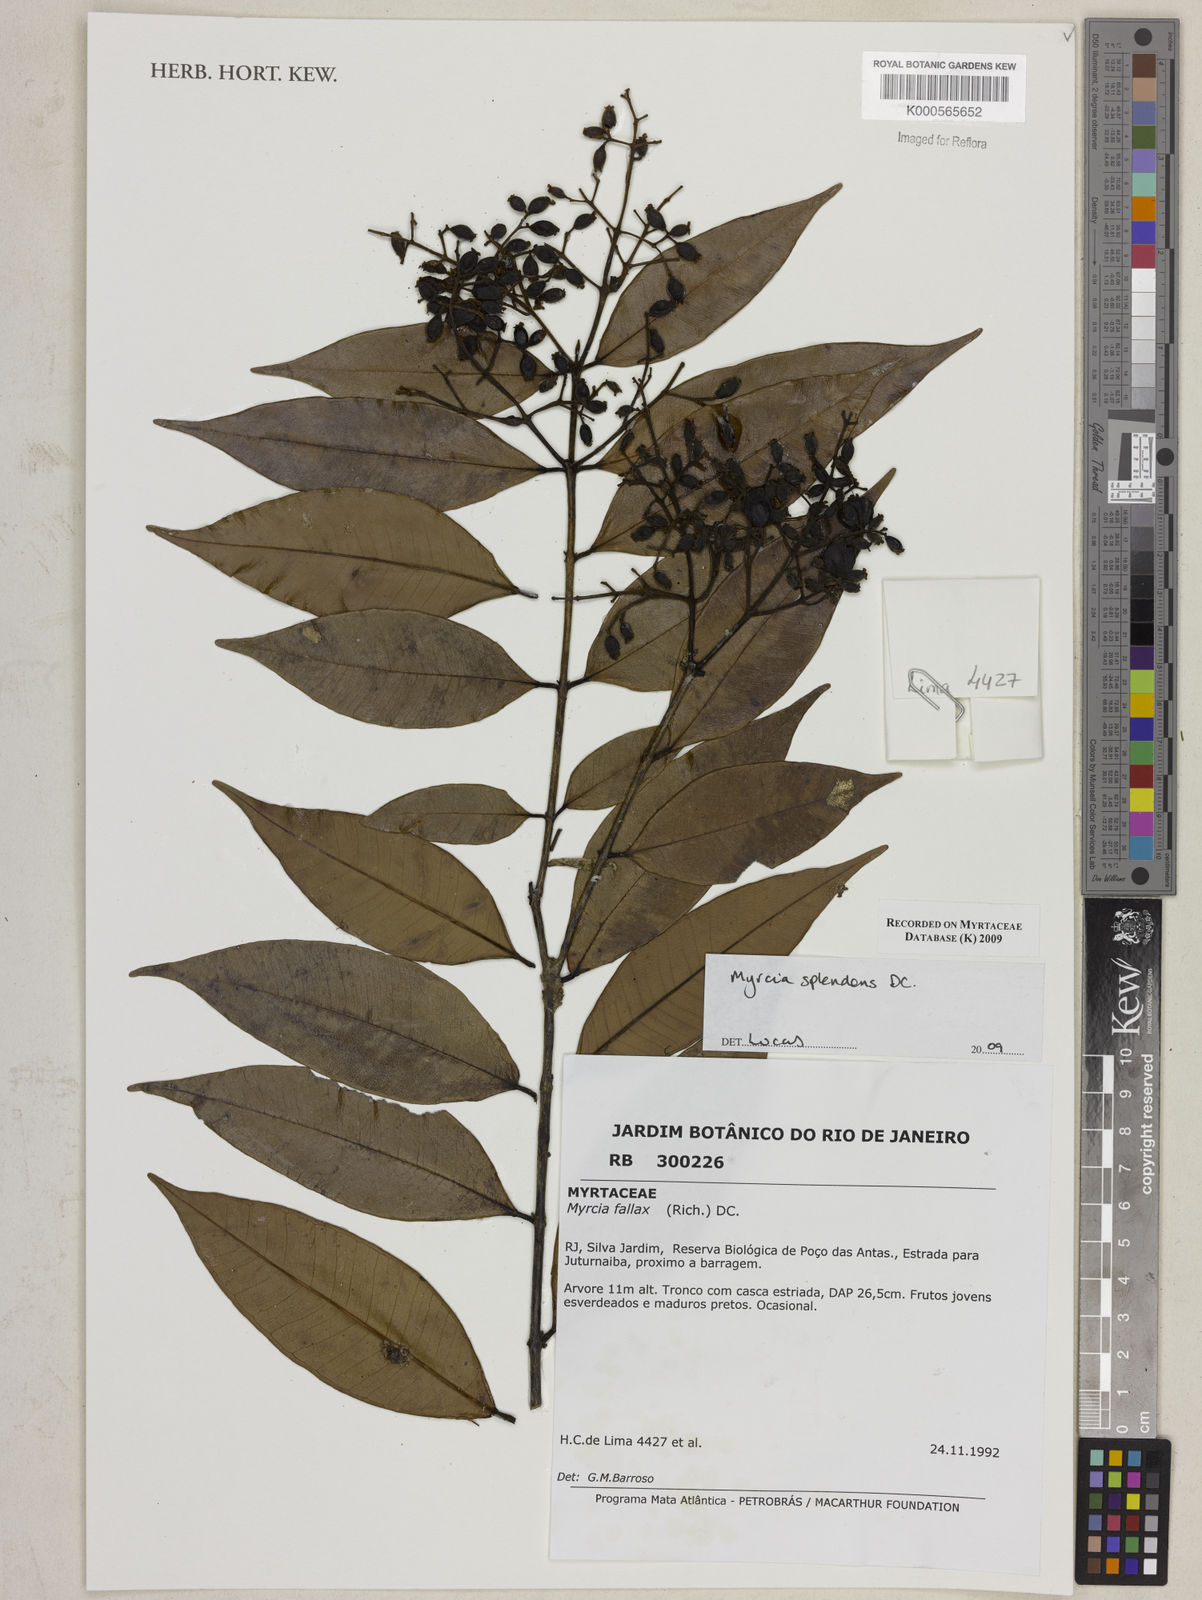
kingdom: Plantae
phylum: Tracheophyta
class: Magnoliopsida
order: Myrtales
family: Myrtaceae
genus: Myrcia
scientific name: Myrcia splendens
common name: Surinam cherry
